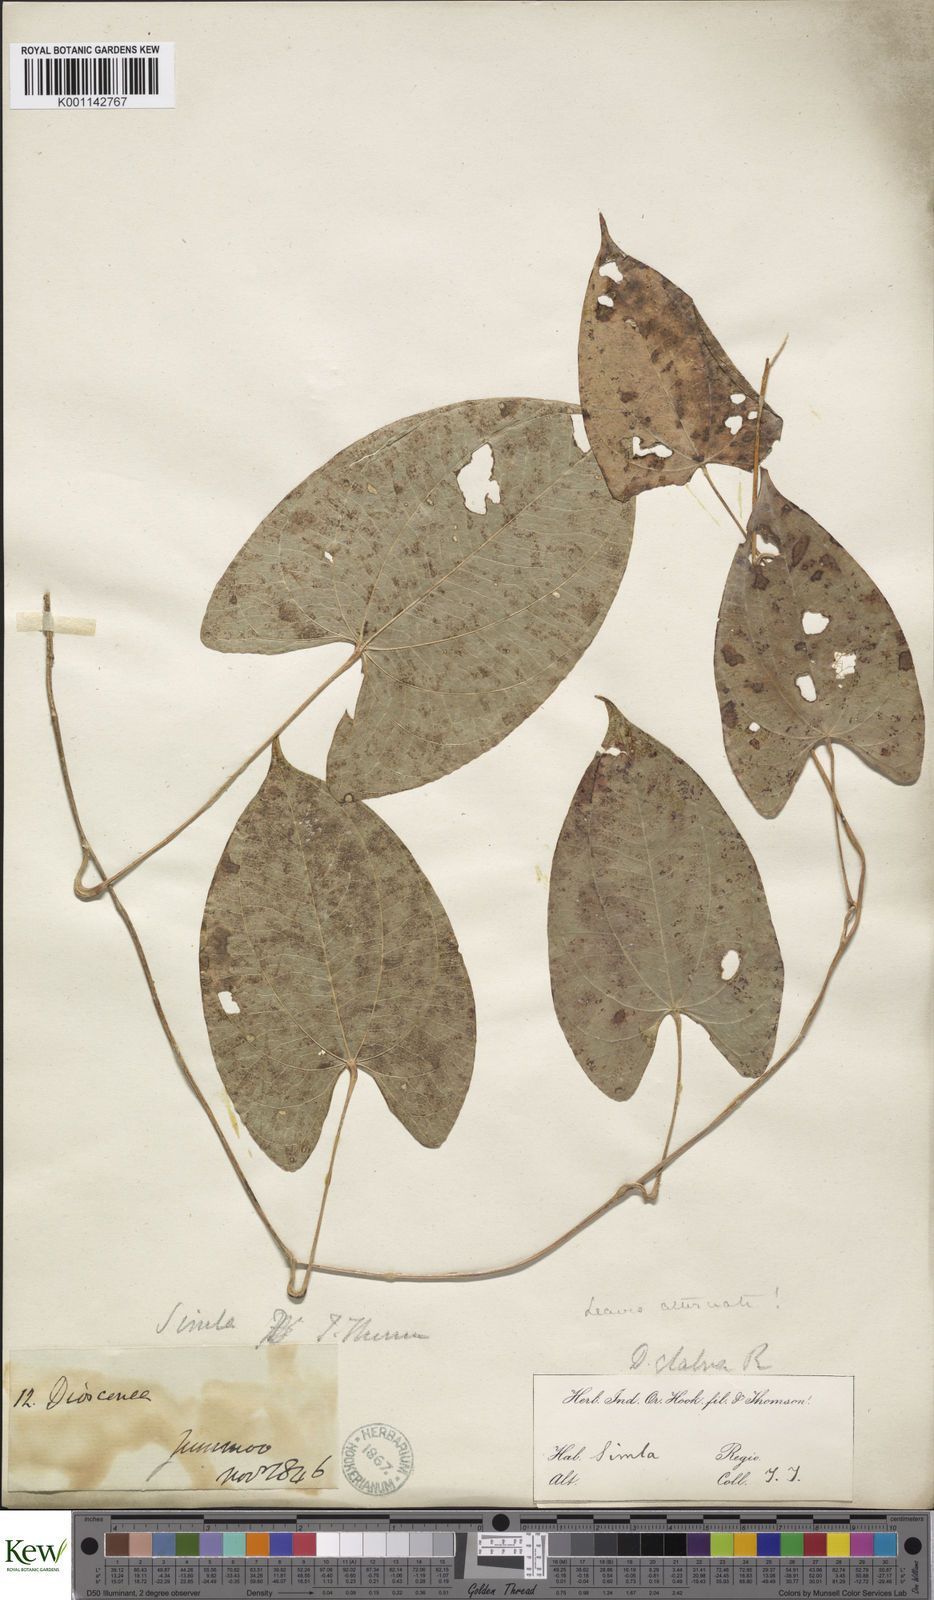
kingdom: Plantae
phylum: Tracheophyta
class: Liliopsida
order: Dioscoreales
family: Dioscoreaceae
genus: Dioscorea
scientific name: Dioscorea belophylla
